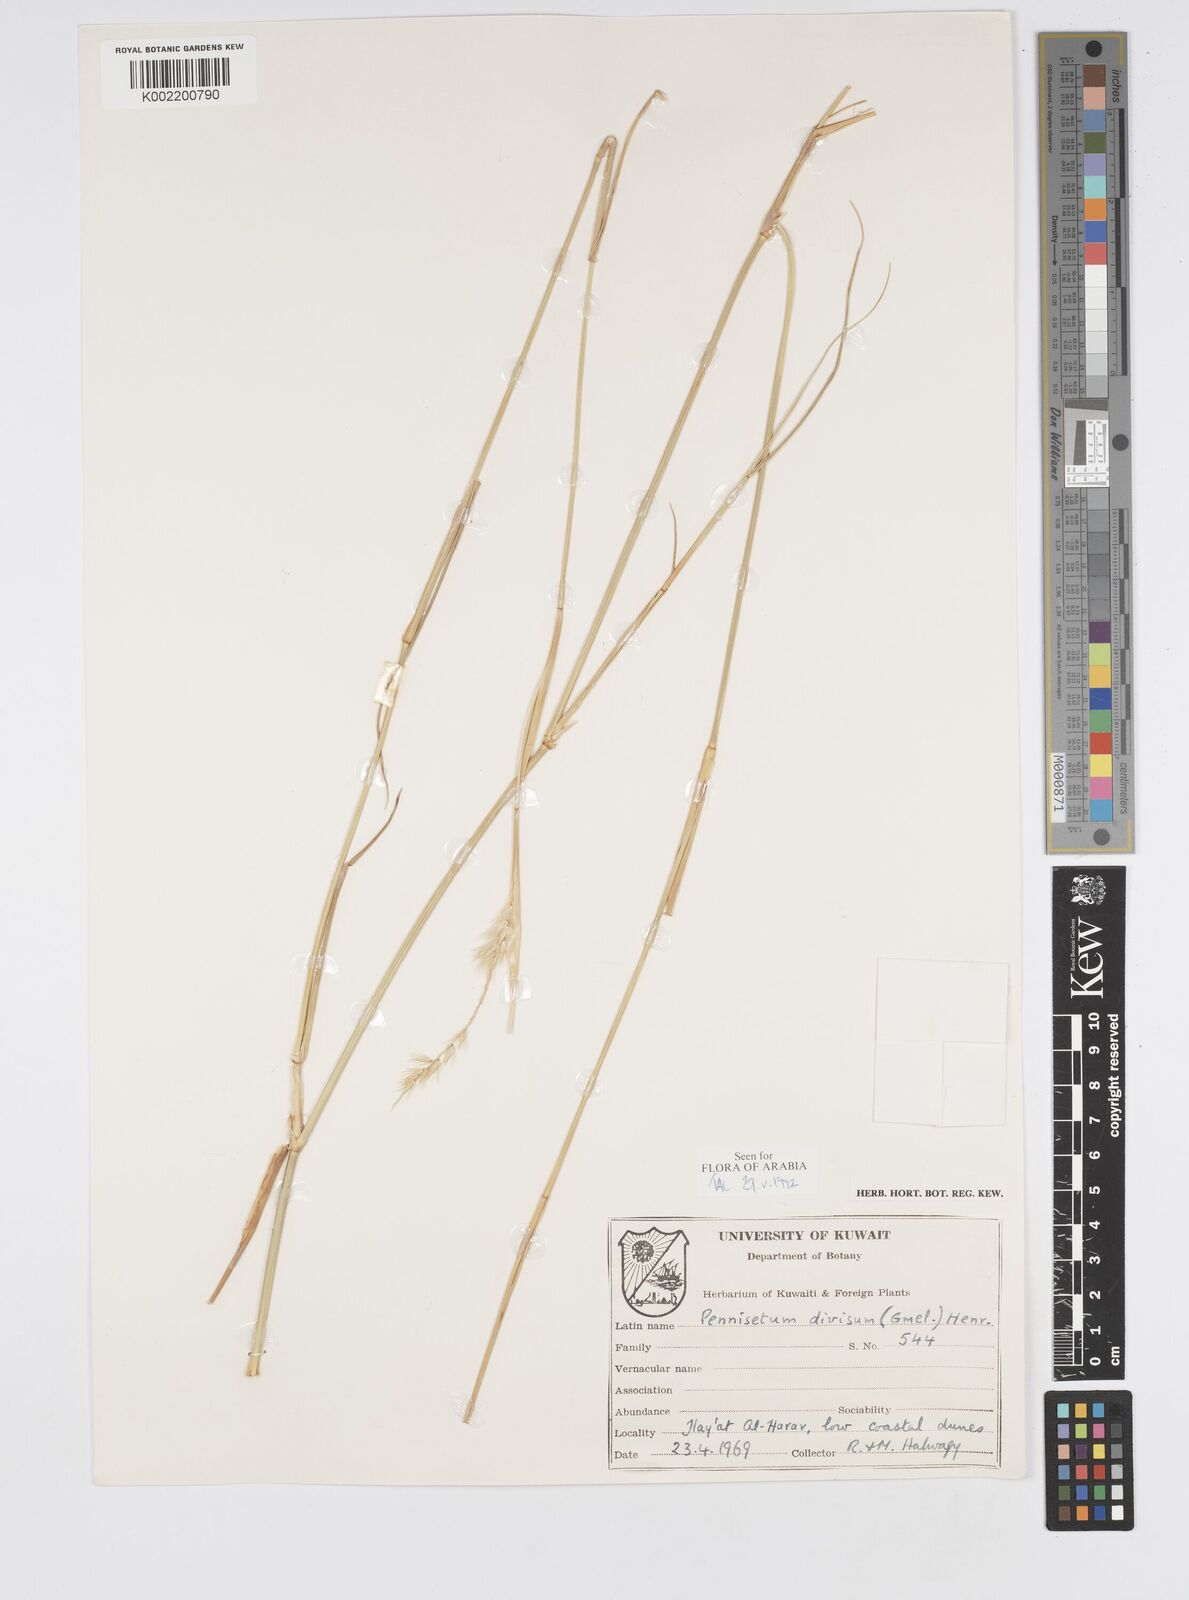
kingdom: Plantae
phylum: Tracheophyta
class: Liliopsida
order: Poales
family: Poaceae
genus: Cenchrus
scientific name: Cenchrus divisus
